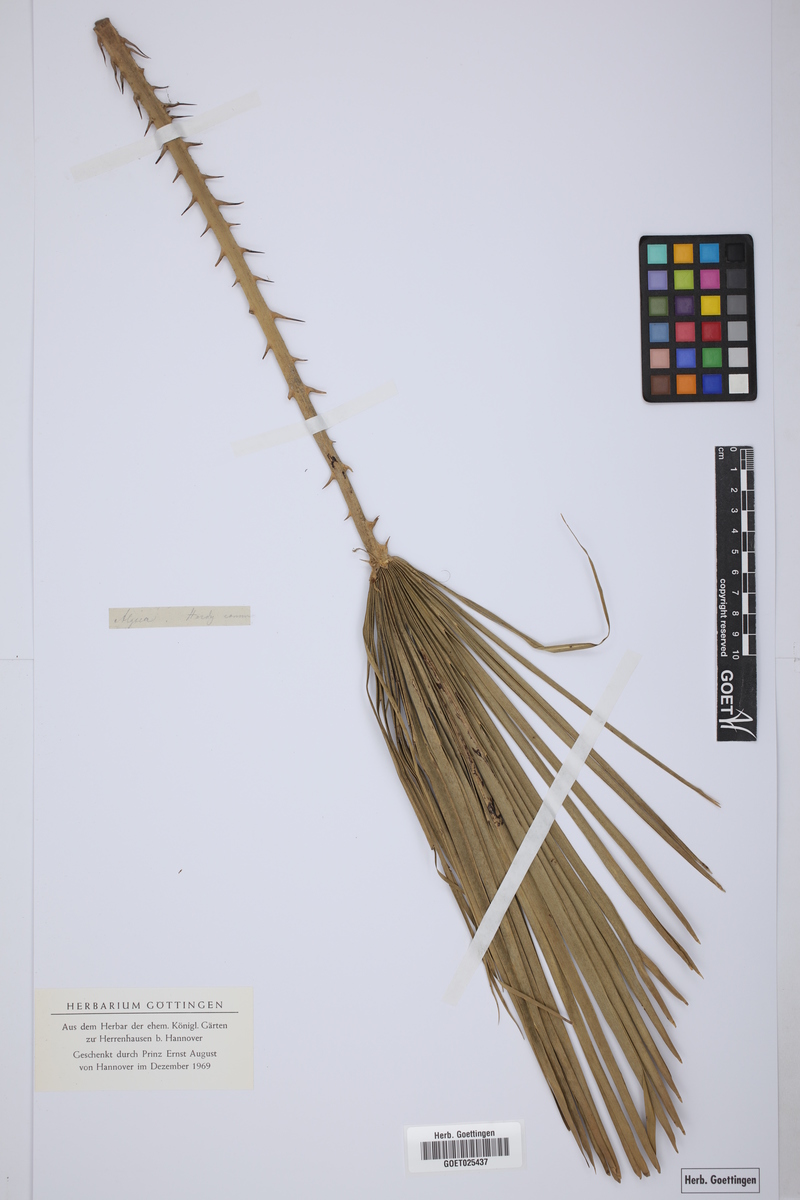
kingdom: Plantae
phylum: Tracheophyta
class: Liliopsida
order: Arecales
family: Arecaceae
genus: Chamaerops
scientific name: Chamaerops humilis
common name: Dwarf fan palm
